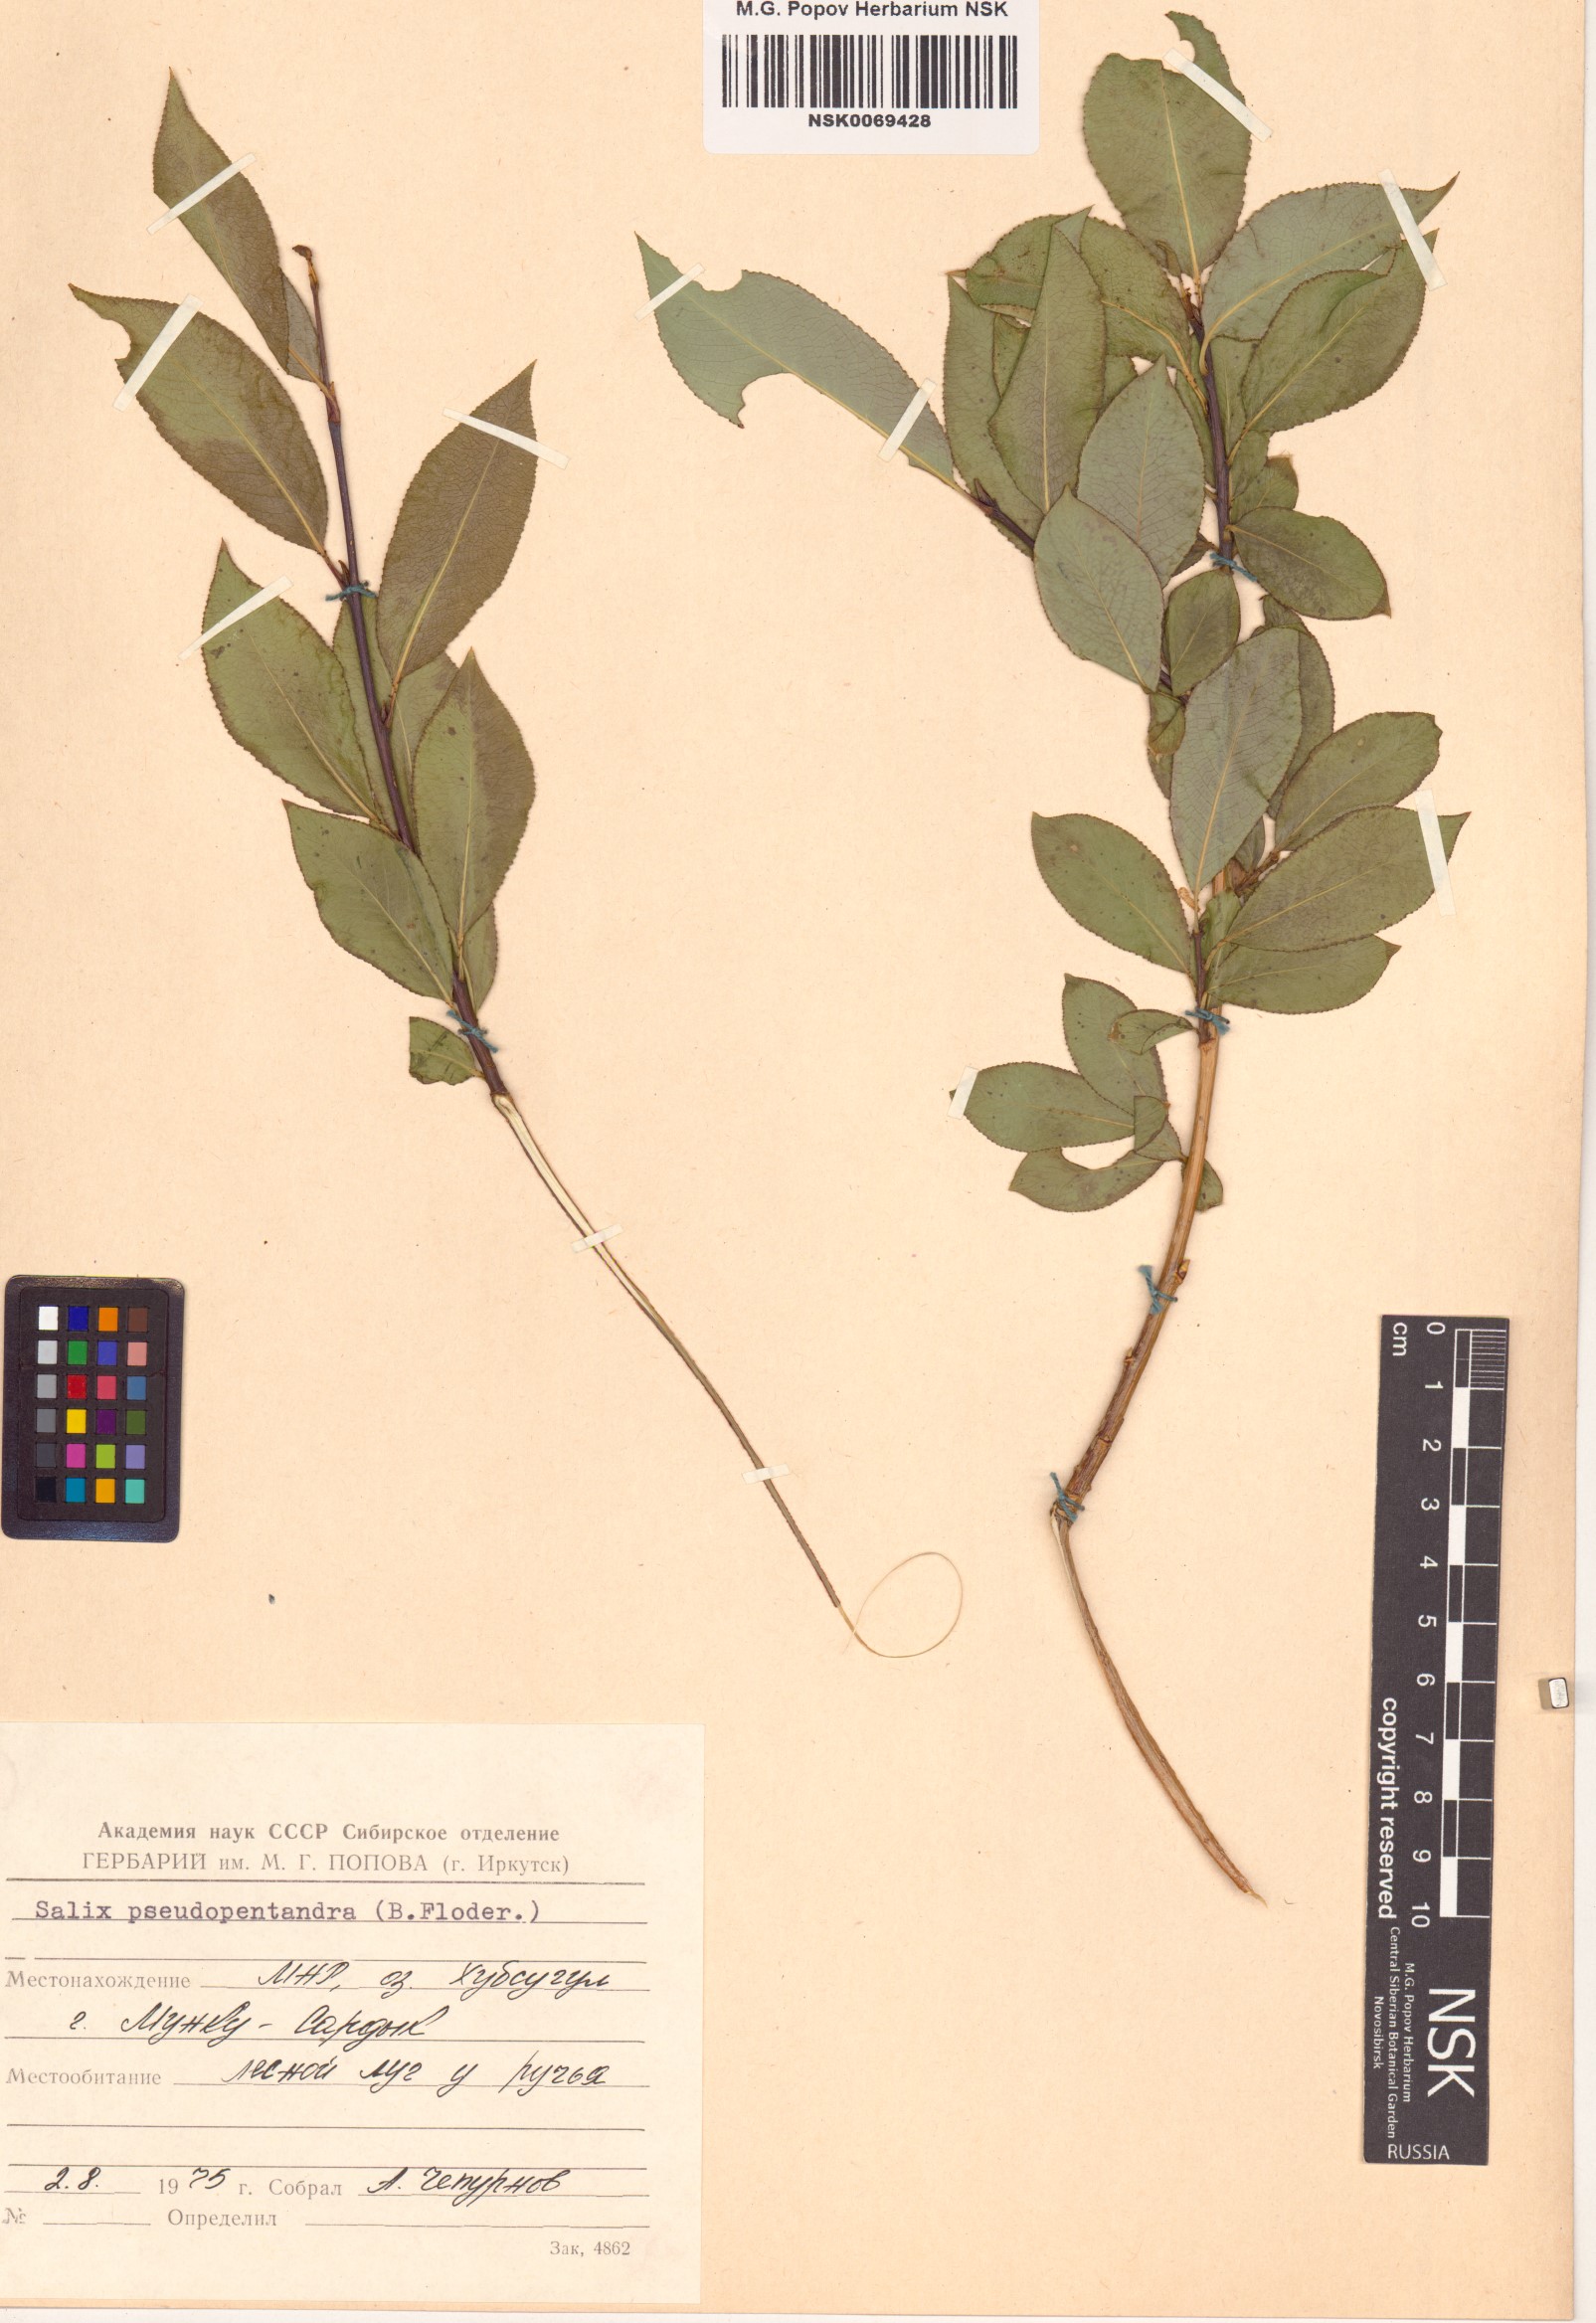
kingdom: Plantae
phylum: Tracheophyta
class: Magnoliopsida
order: Malpighiales
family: Salicaceae
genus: Salix
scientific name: Salix pseudopentandra
